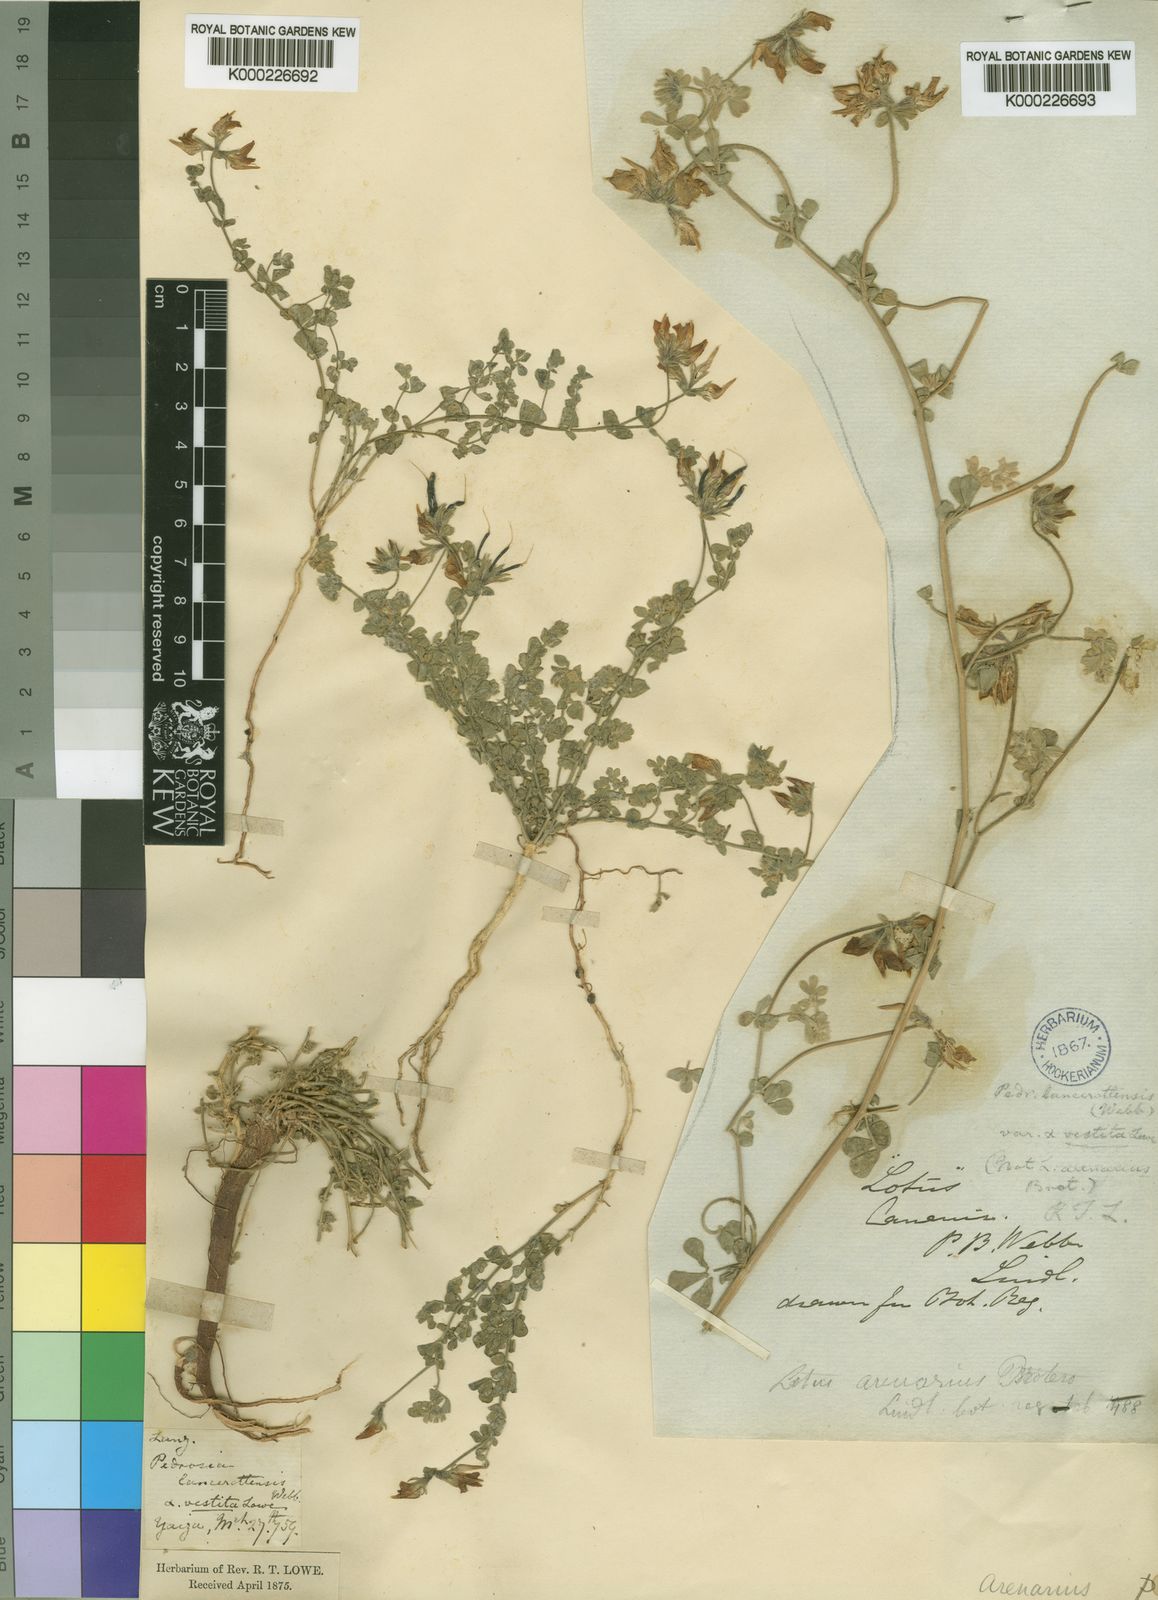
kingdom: Plantae
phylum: Tracheophyta
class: Magnoliopsida
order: Fabales
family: Fabaceae
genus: Lotus
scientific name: Lotus lancerottensis
